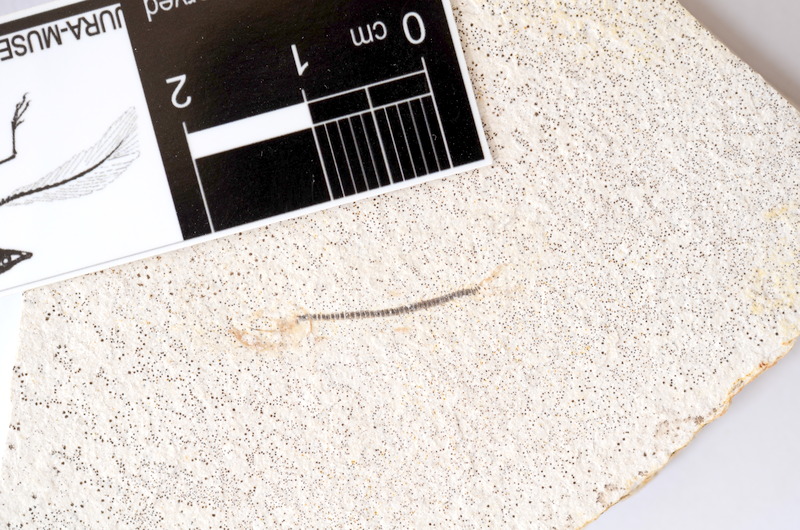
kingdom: Animalia
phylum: Chordata
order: Salmoniformes
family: Orthogonikleithridae
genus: Orthogonikleithrus
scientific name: Orthogonikleithrus hoelli
